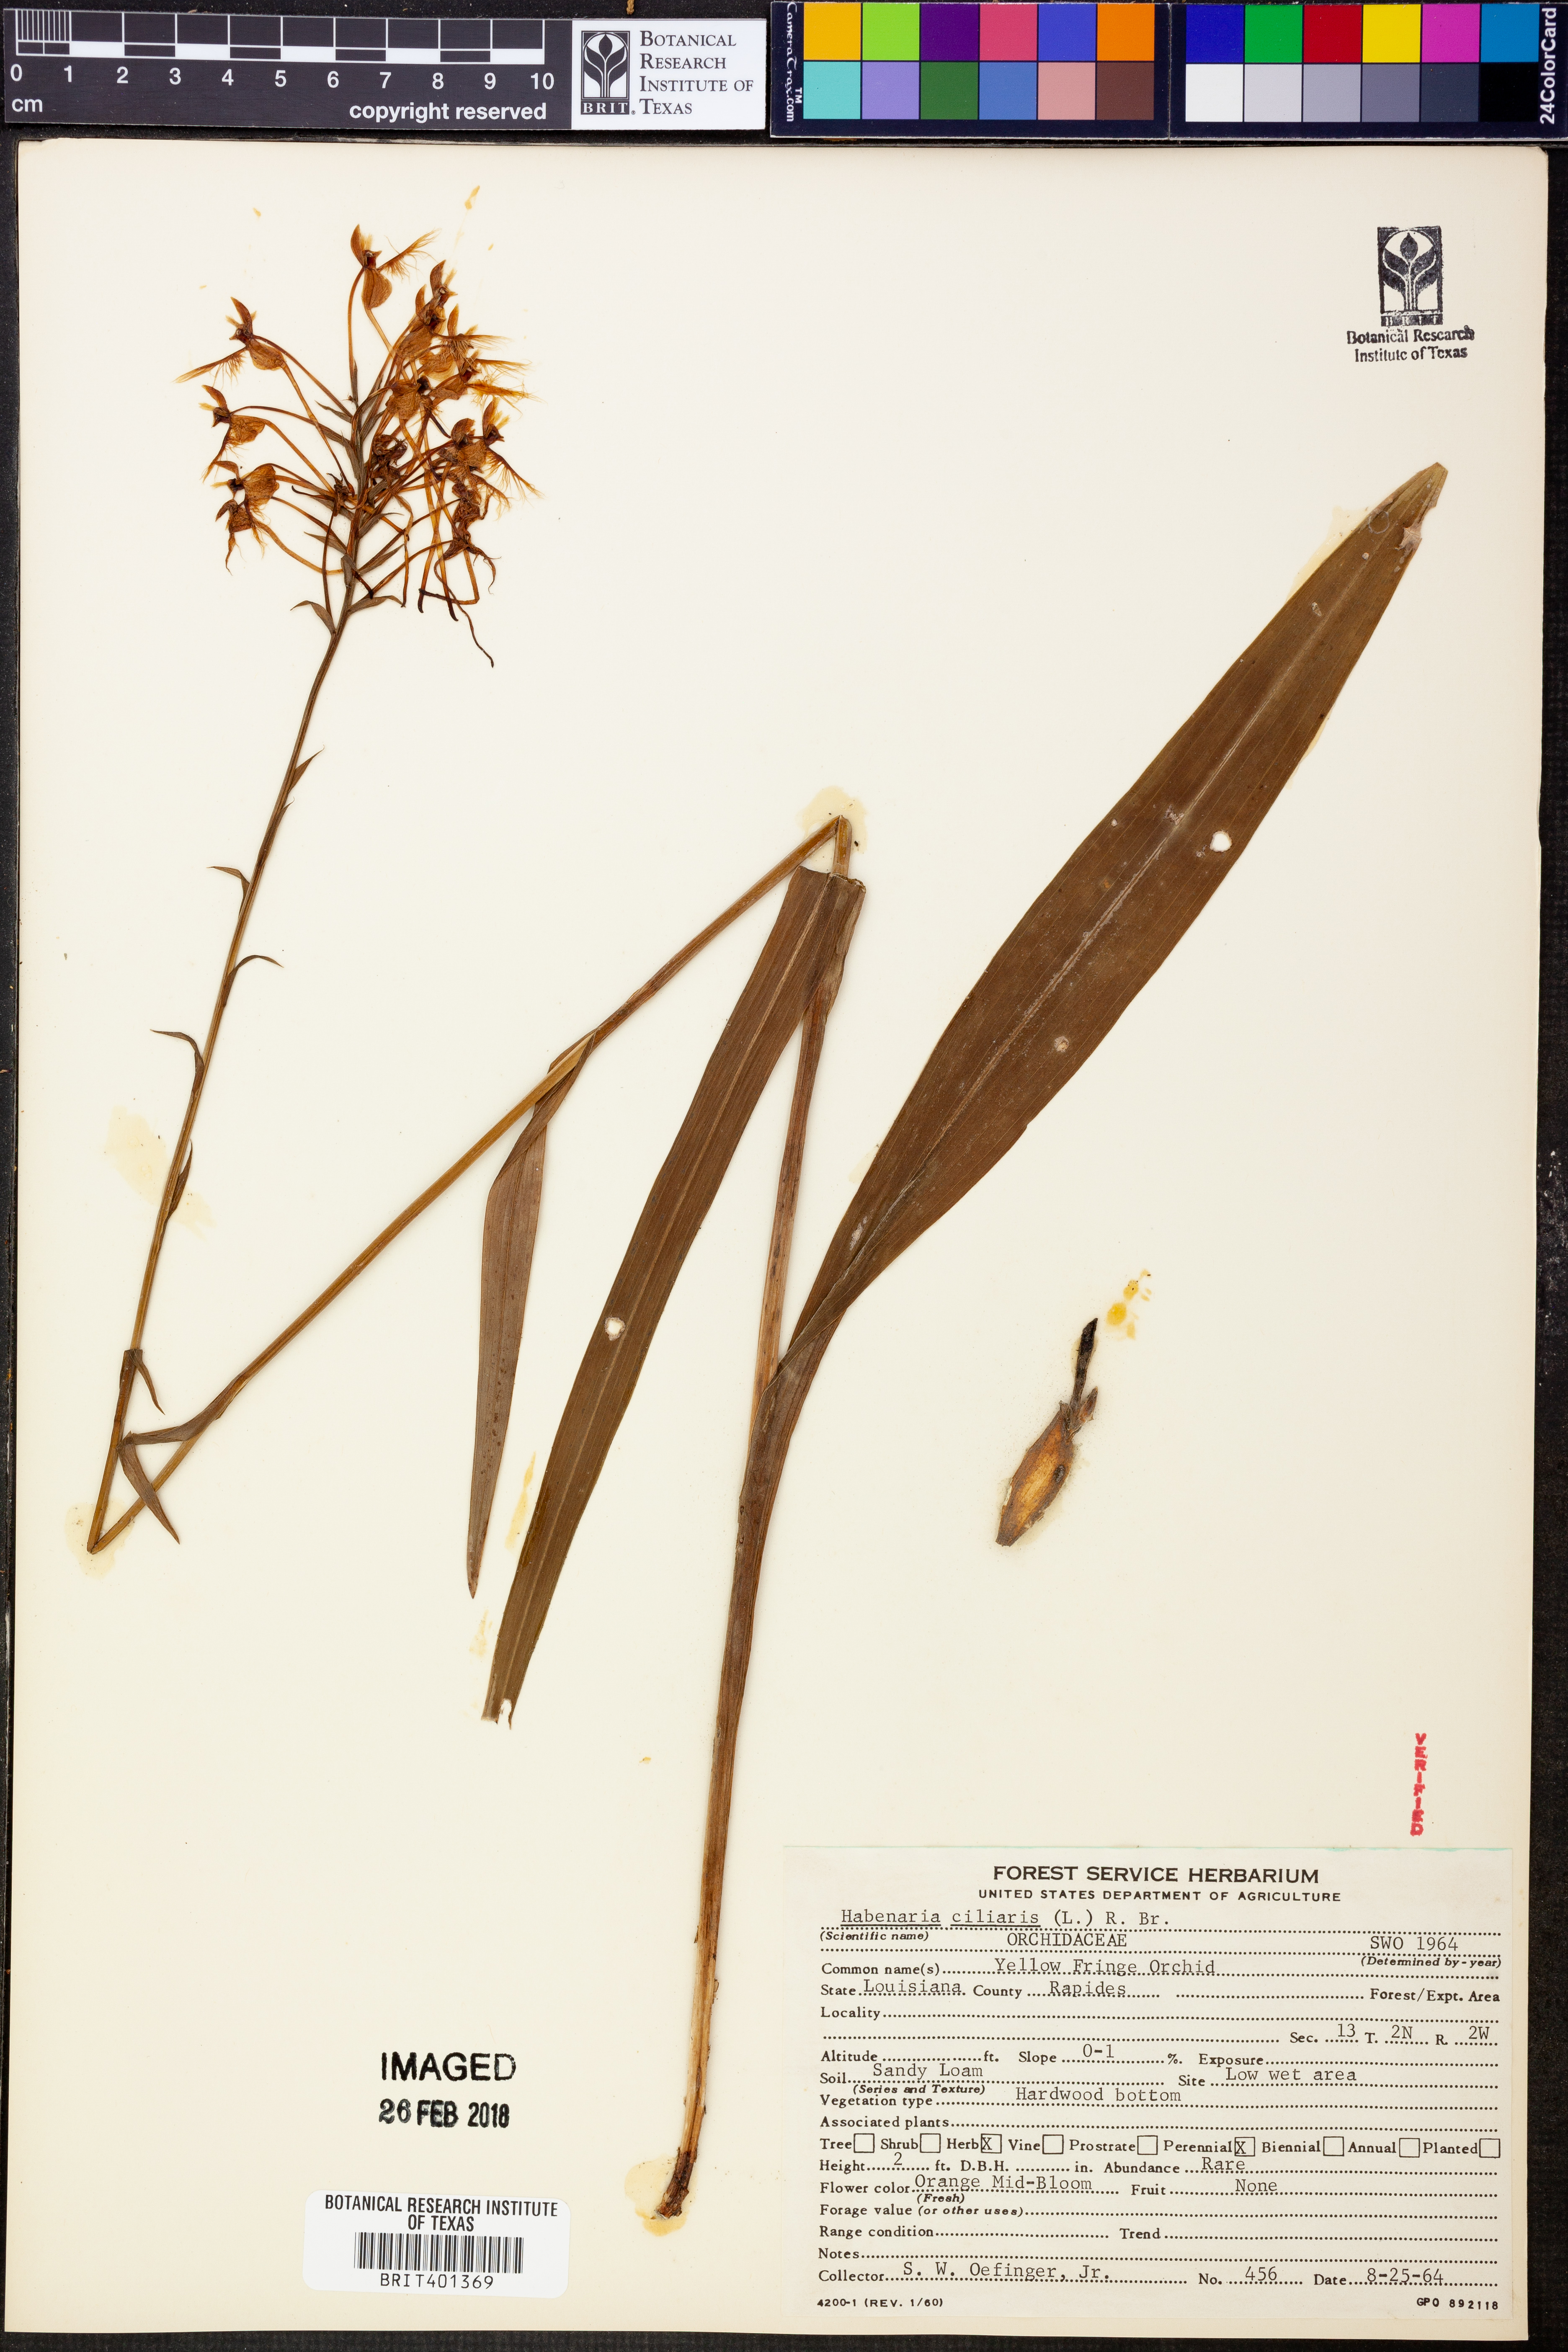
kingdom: Plantae
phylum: Tracheophyta
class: Liliopsida
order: Asparagales
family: Orchidaceae
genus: Platanthera
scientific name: Platanthera ciliaris
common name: Yellow fringed orchid
